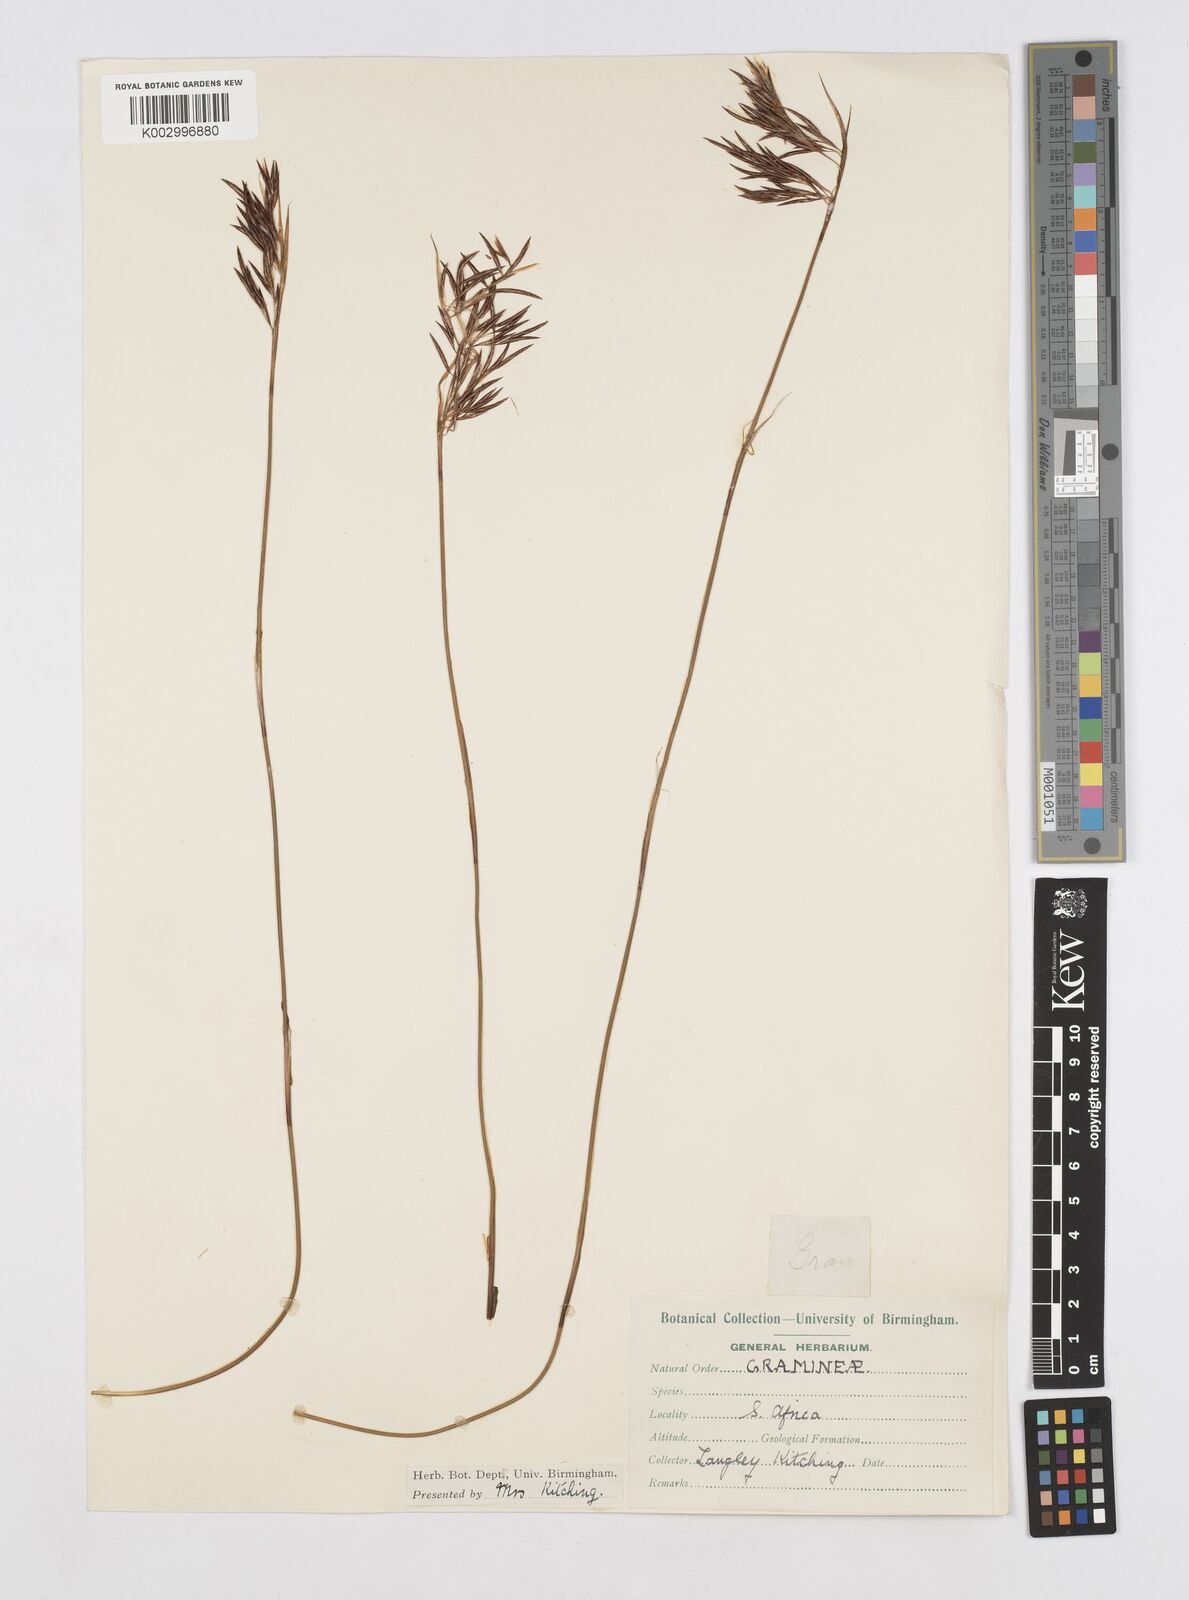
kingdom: Plantae
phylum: Tracheophyta
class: Liliopsida
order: Poales
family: Restionaceae
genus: Thamnochortus
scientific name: Thamnochortus lucens
